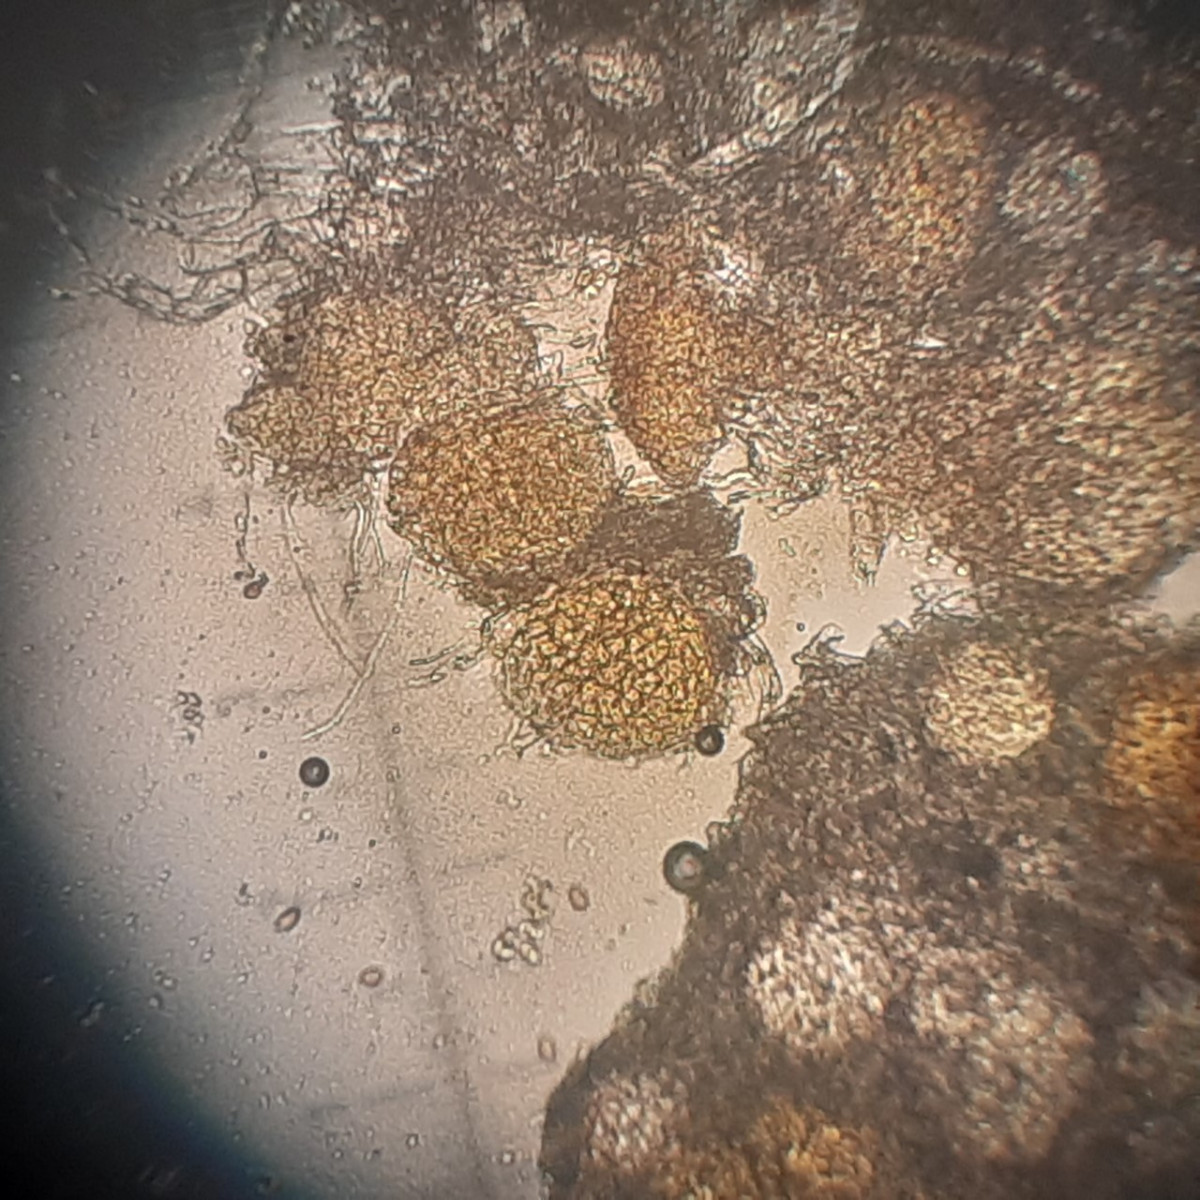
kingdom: Fungi
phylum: Ascomycota
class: Leotiomycetes
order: Helotiales
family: Erysiphaceae
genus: Erysiphe
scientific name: Erysiphe polygoni
